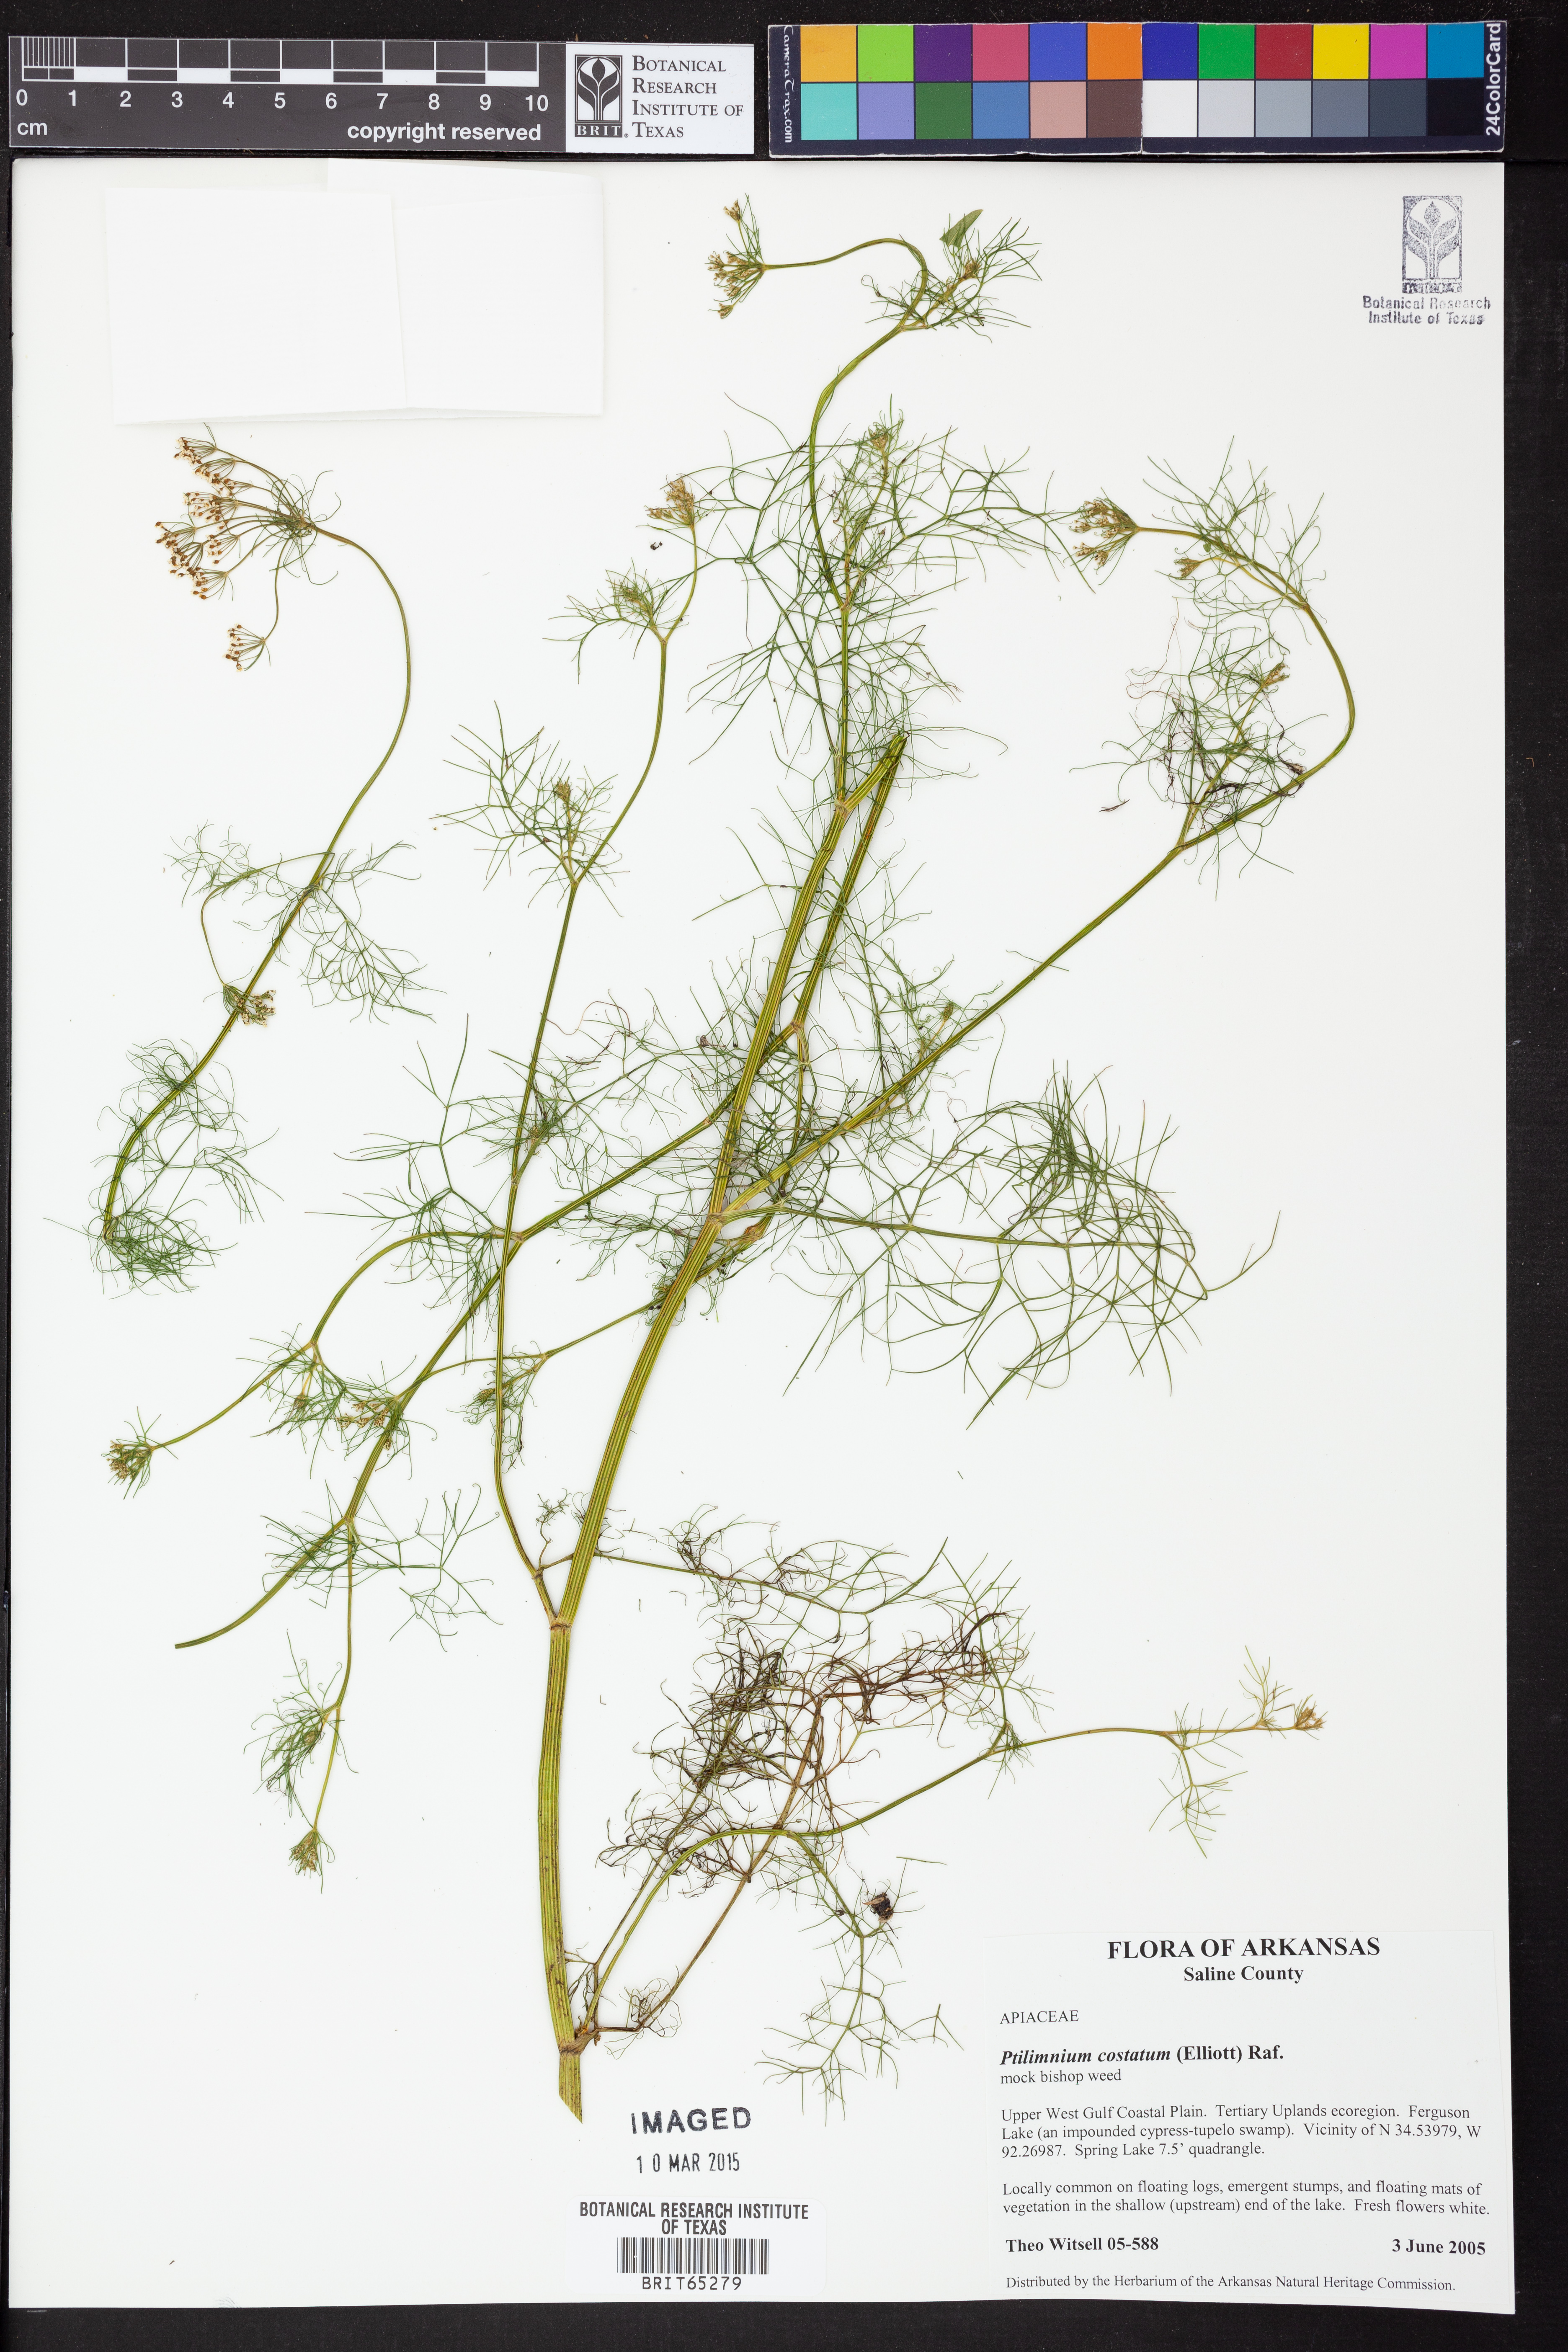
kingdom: Plantae
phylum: Tracheophyta
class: Magnoliopsida
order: Apiales
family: Apiaceae
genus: Ptilimnium
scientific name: Ptilimnium costatum
